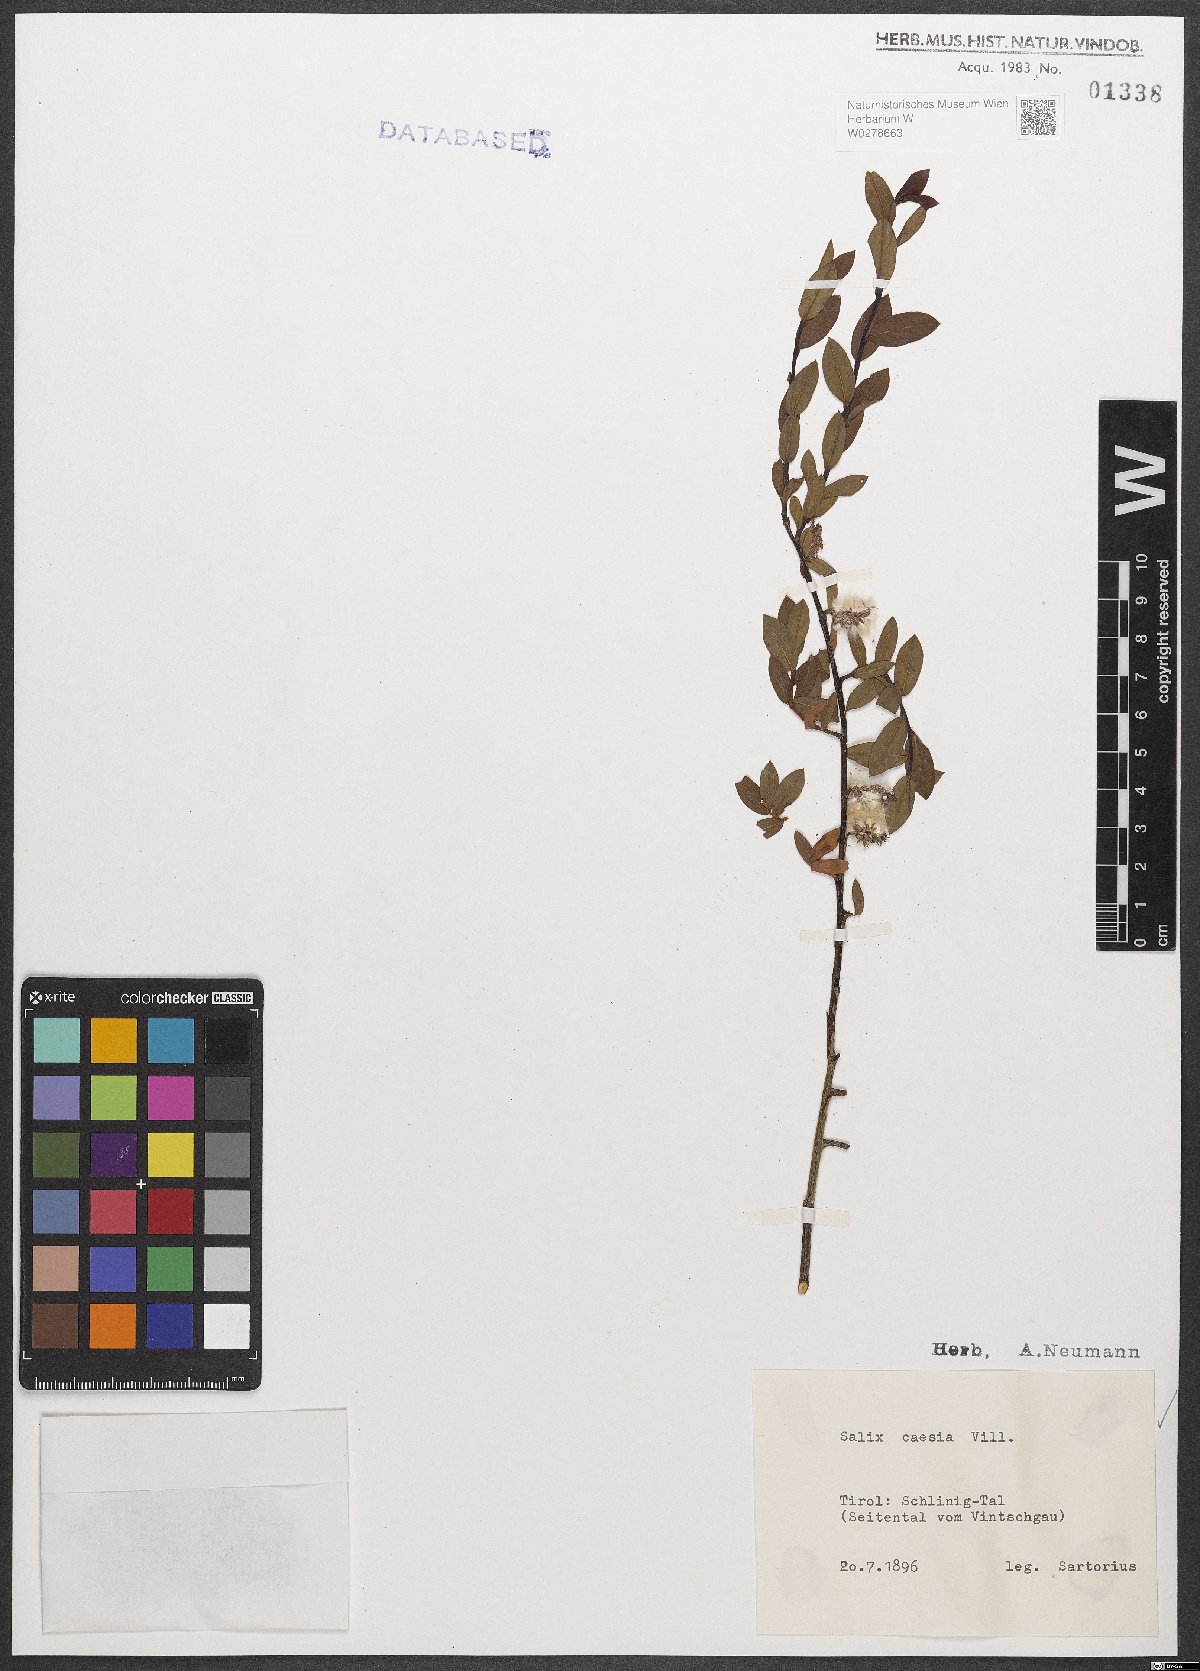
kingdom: Plantae
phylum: Tracheophyta
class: Magnoliopsida
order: Malpighiales
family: Salicaceae
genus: Salix
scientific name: Salix caesia
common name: Blue willow
